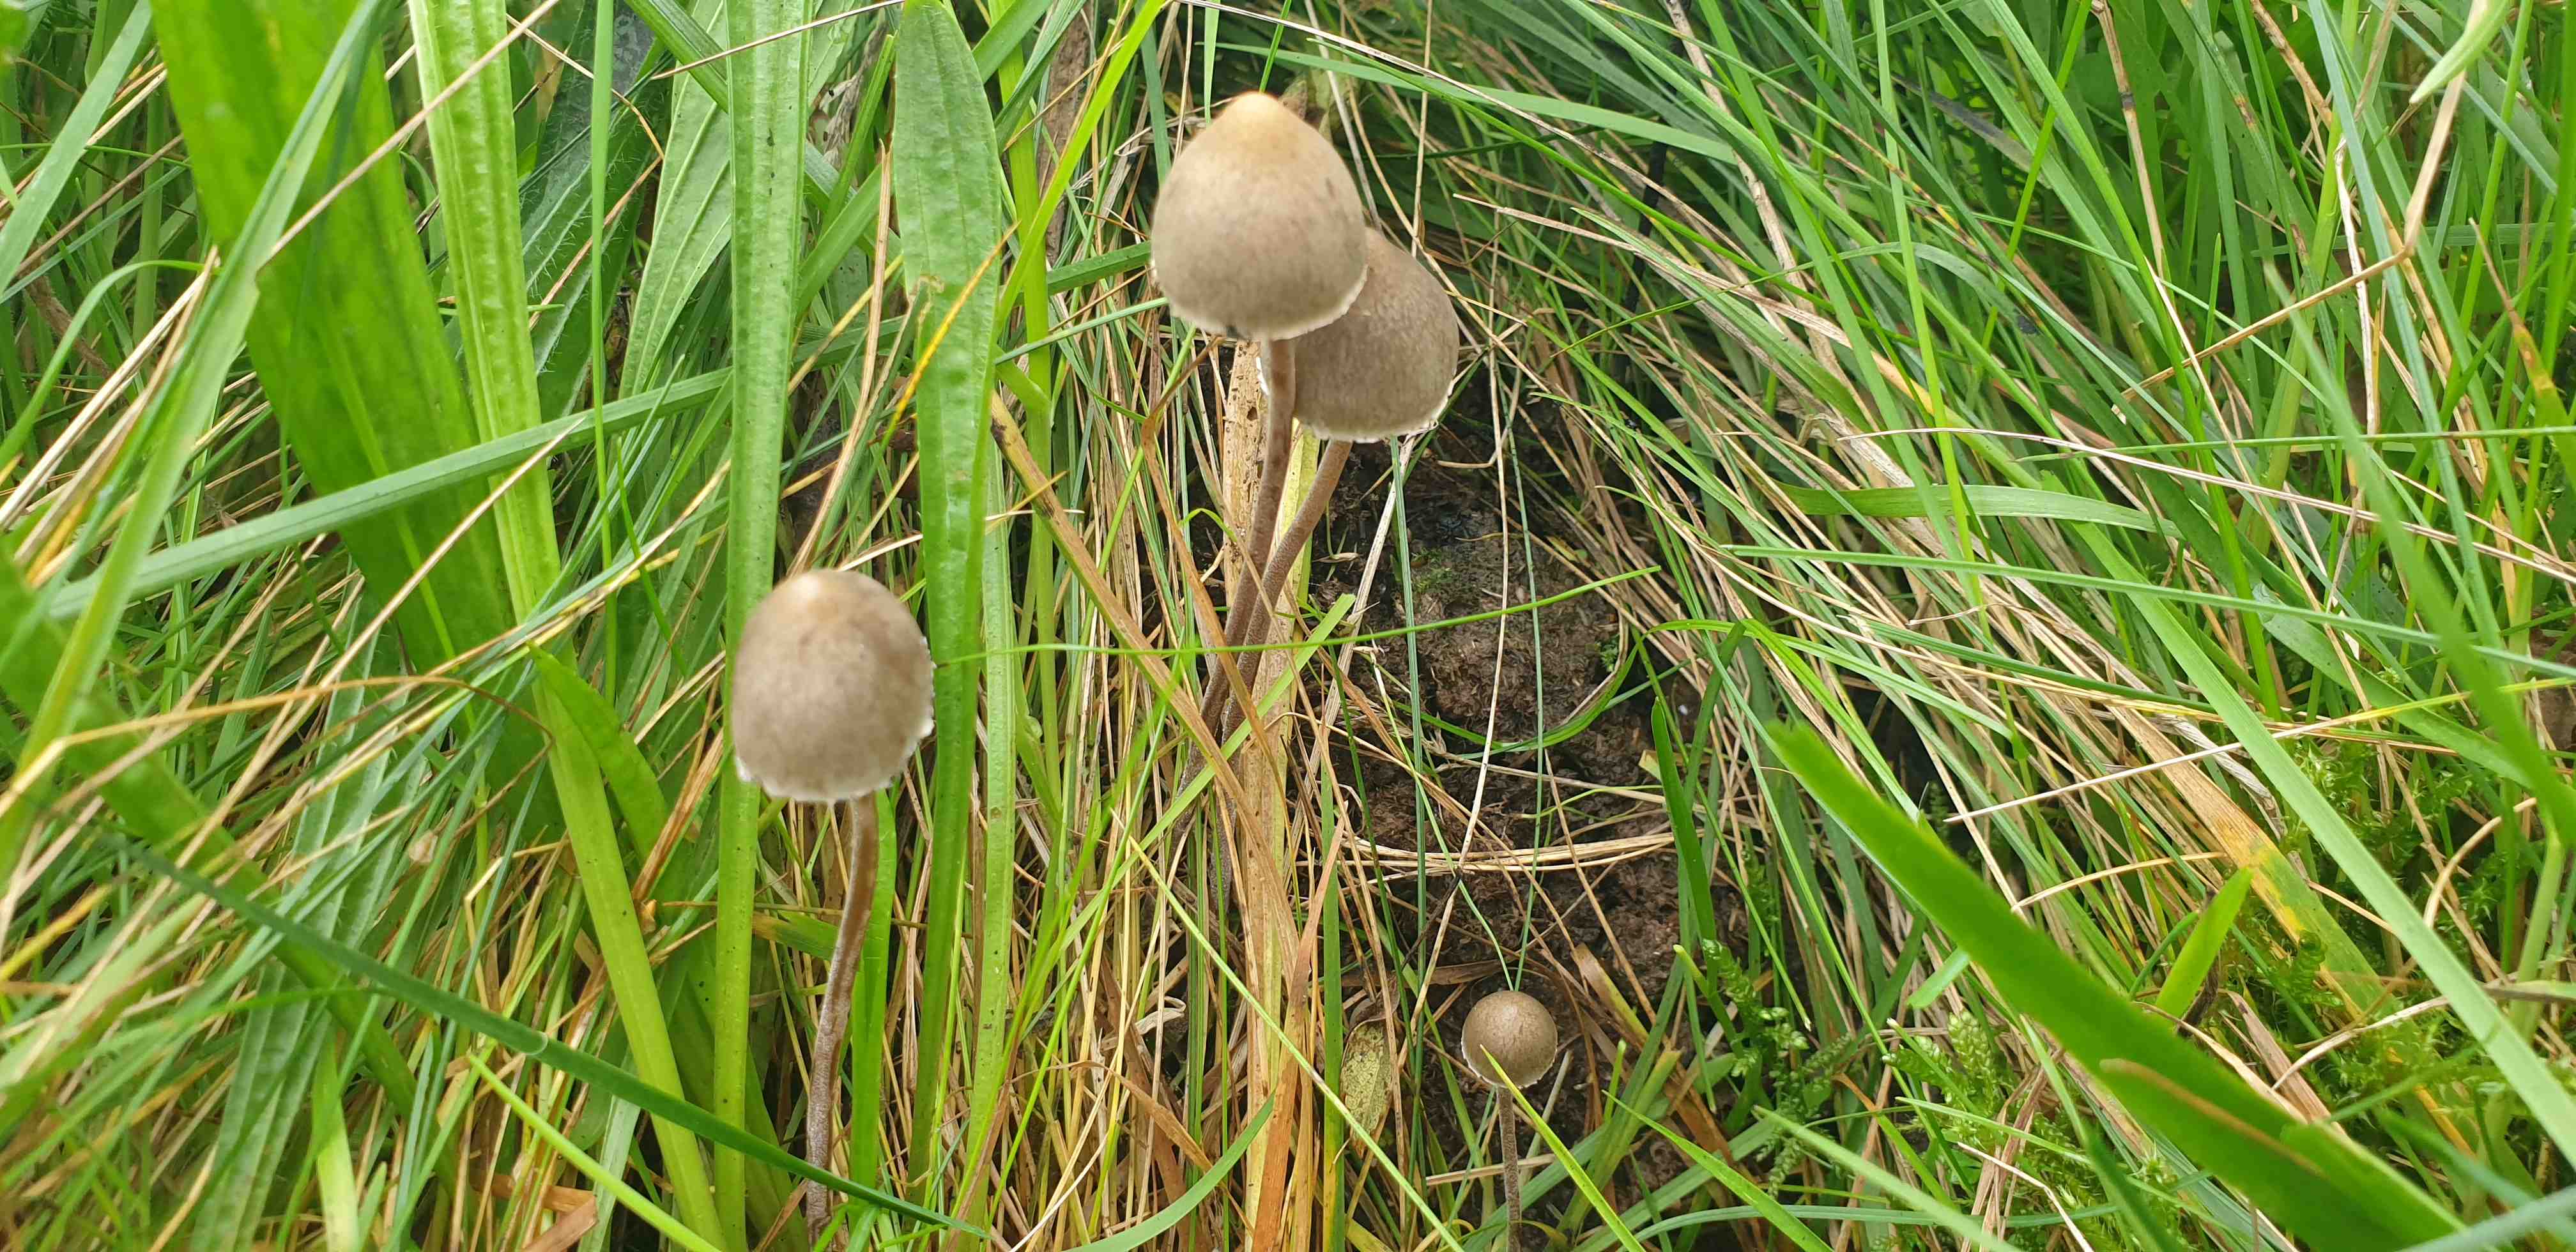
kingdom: Fungi
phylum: Basidiomycota
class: Agaricomycetes
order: Agaricales
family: Bolbitiaceae
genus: Panaeolus
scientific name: Panaeolus papilionaceus
